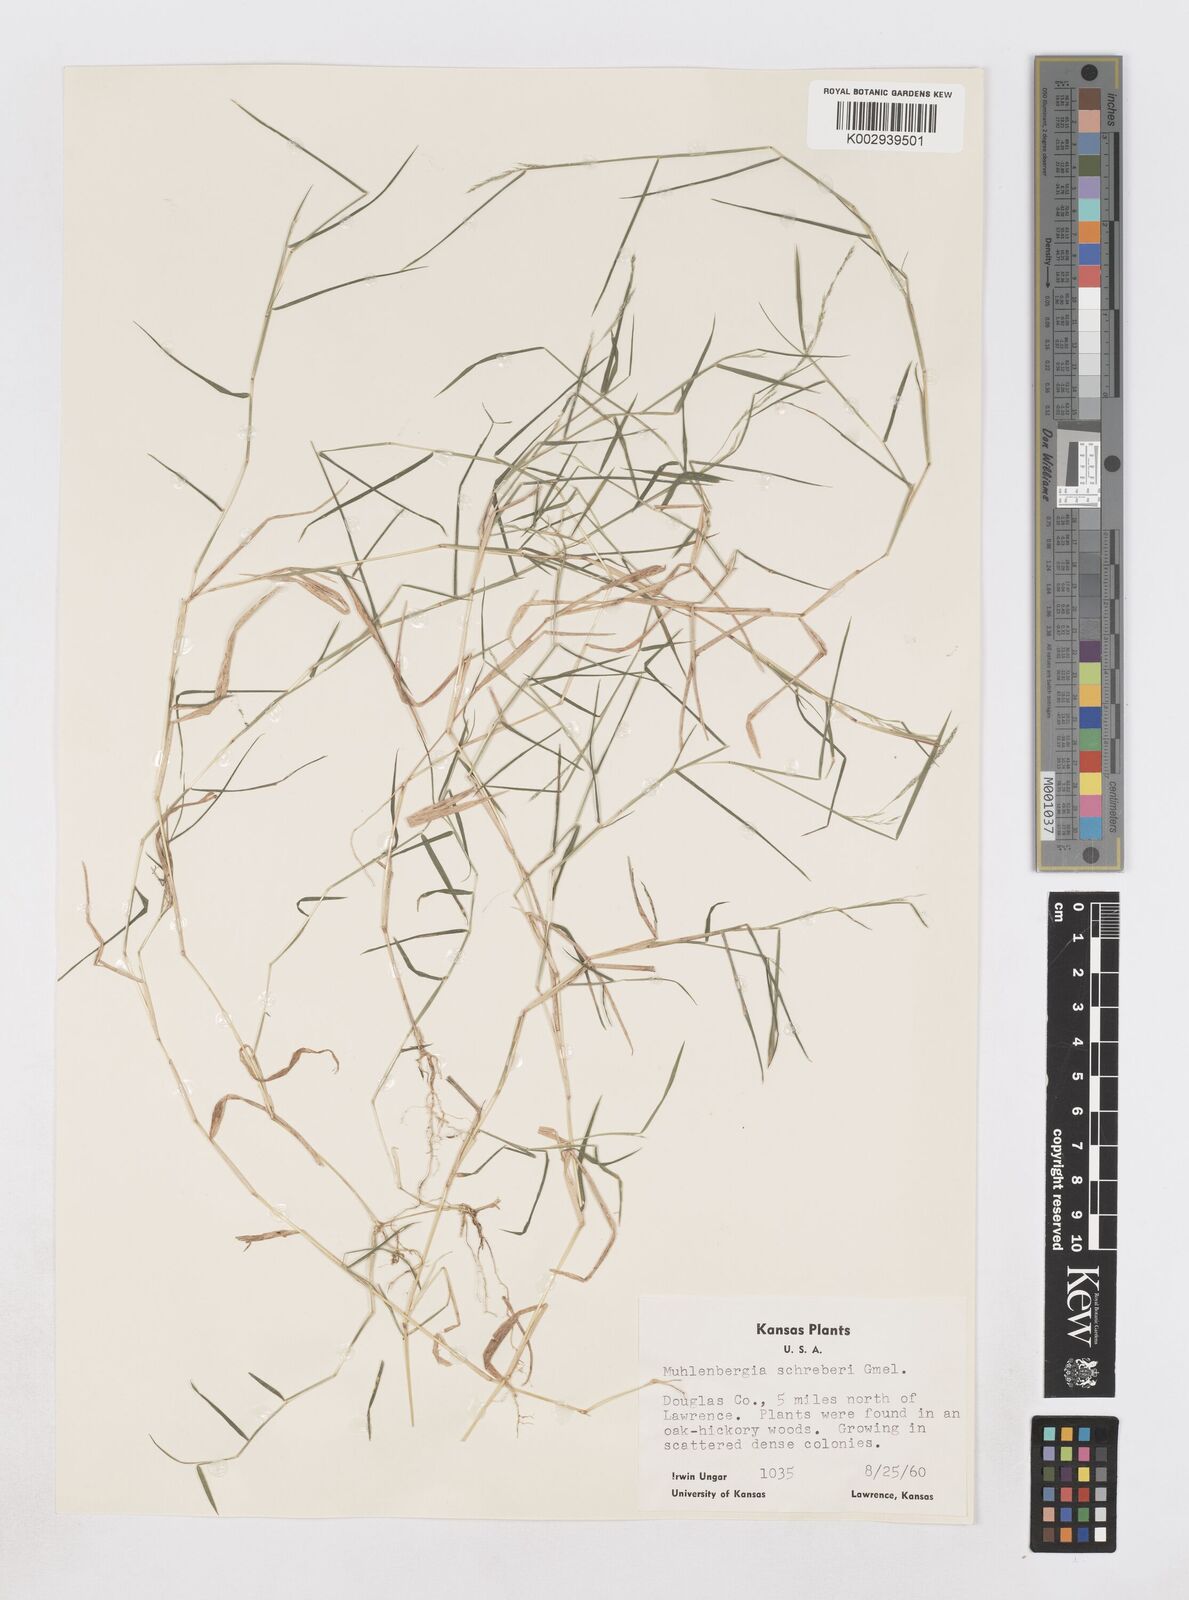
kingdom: Plantae
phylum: Tracheophyta
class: Liliopsida
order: Poales
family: Poaceae
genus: Muhlenbergia
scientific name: Muhlenbergia schreberi
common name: Nimblewill
